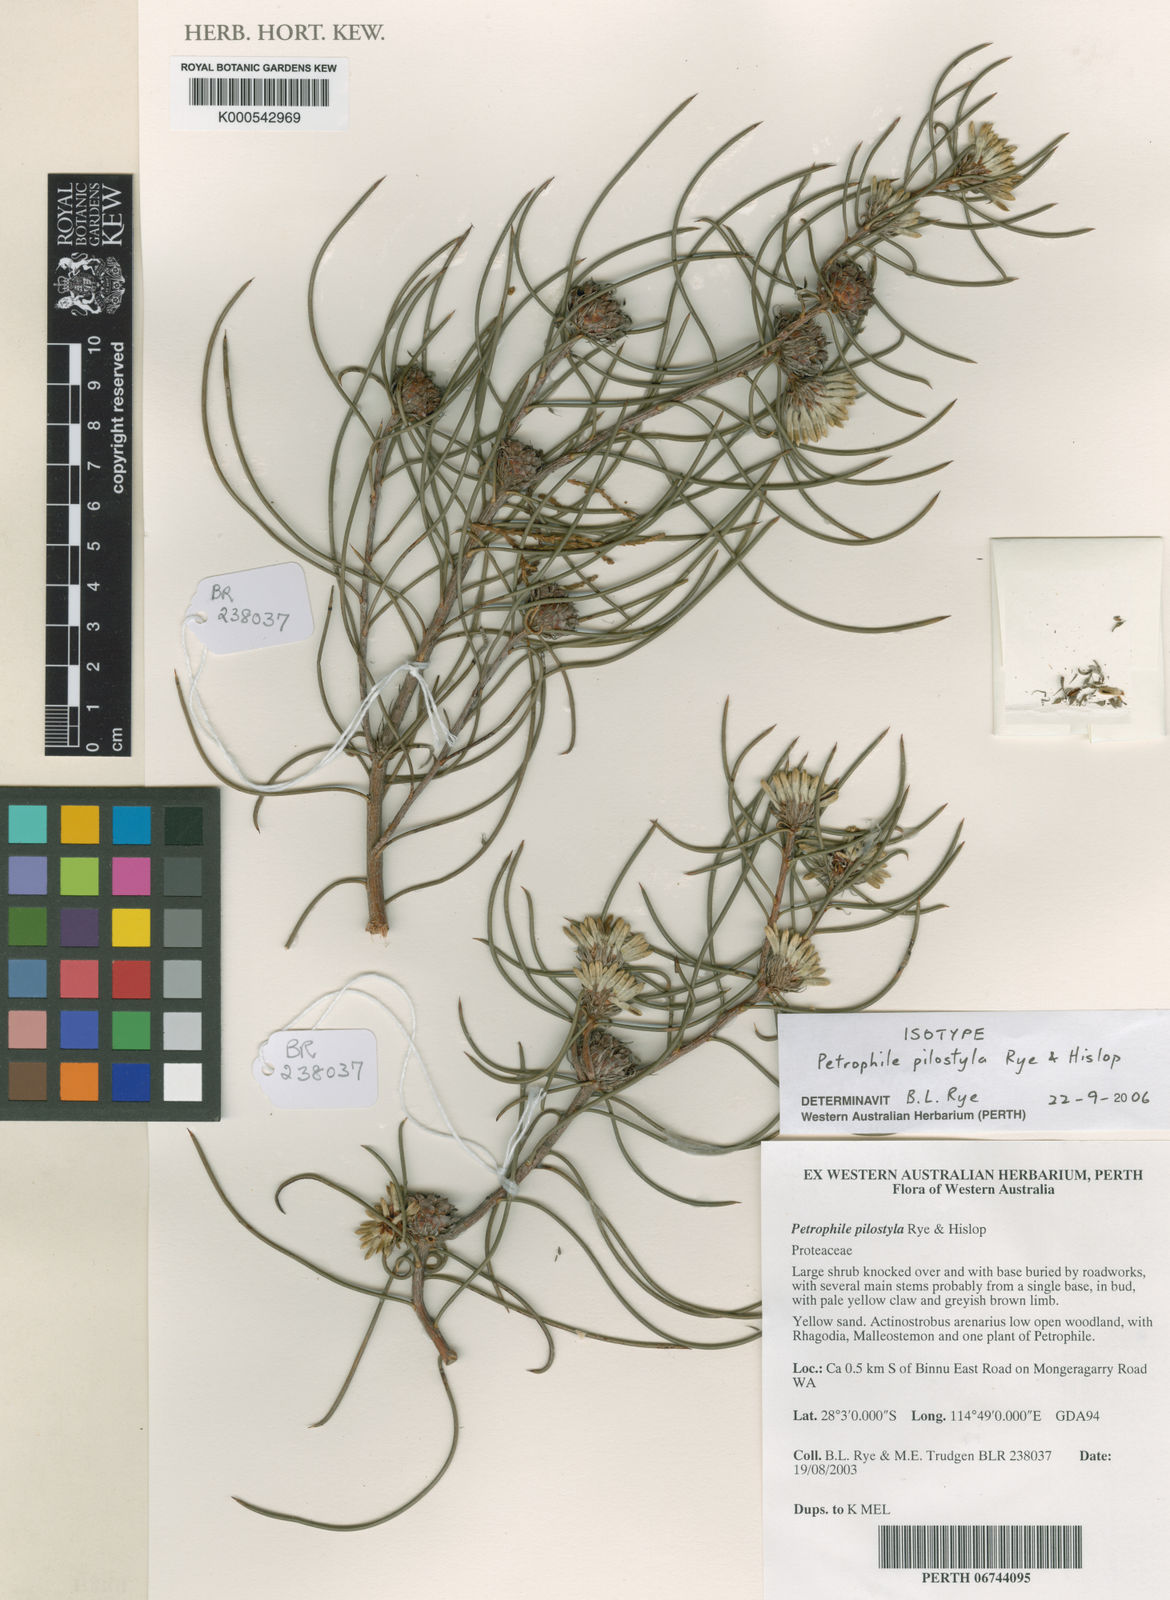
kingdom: Plantae
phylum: Tracheophyta
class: Magnoliopsida
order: Proteales
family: Proteaceae
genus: Petrophile
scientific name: Petrophile pilostyla
